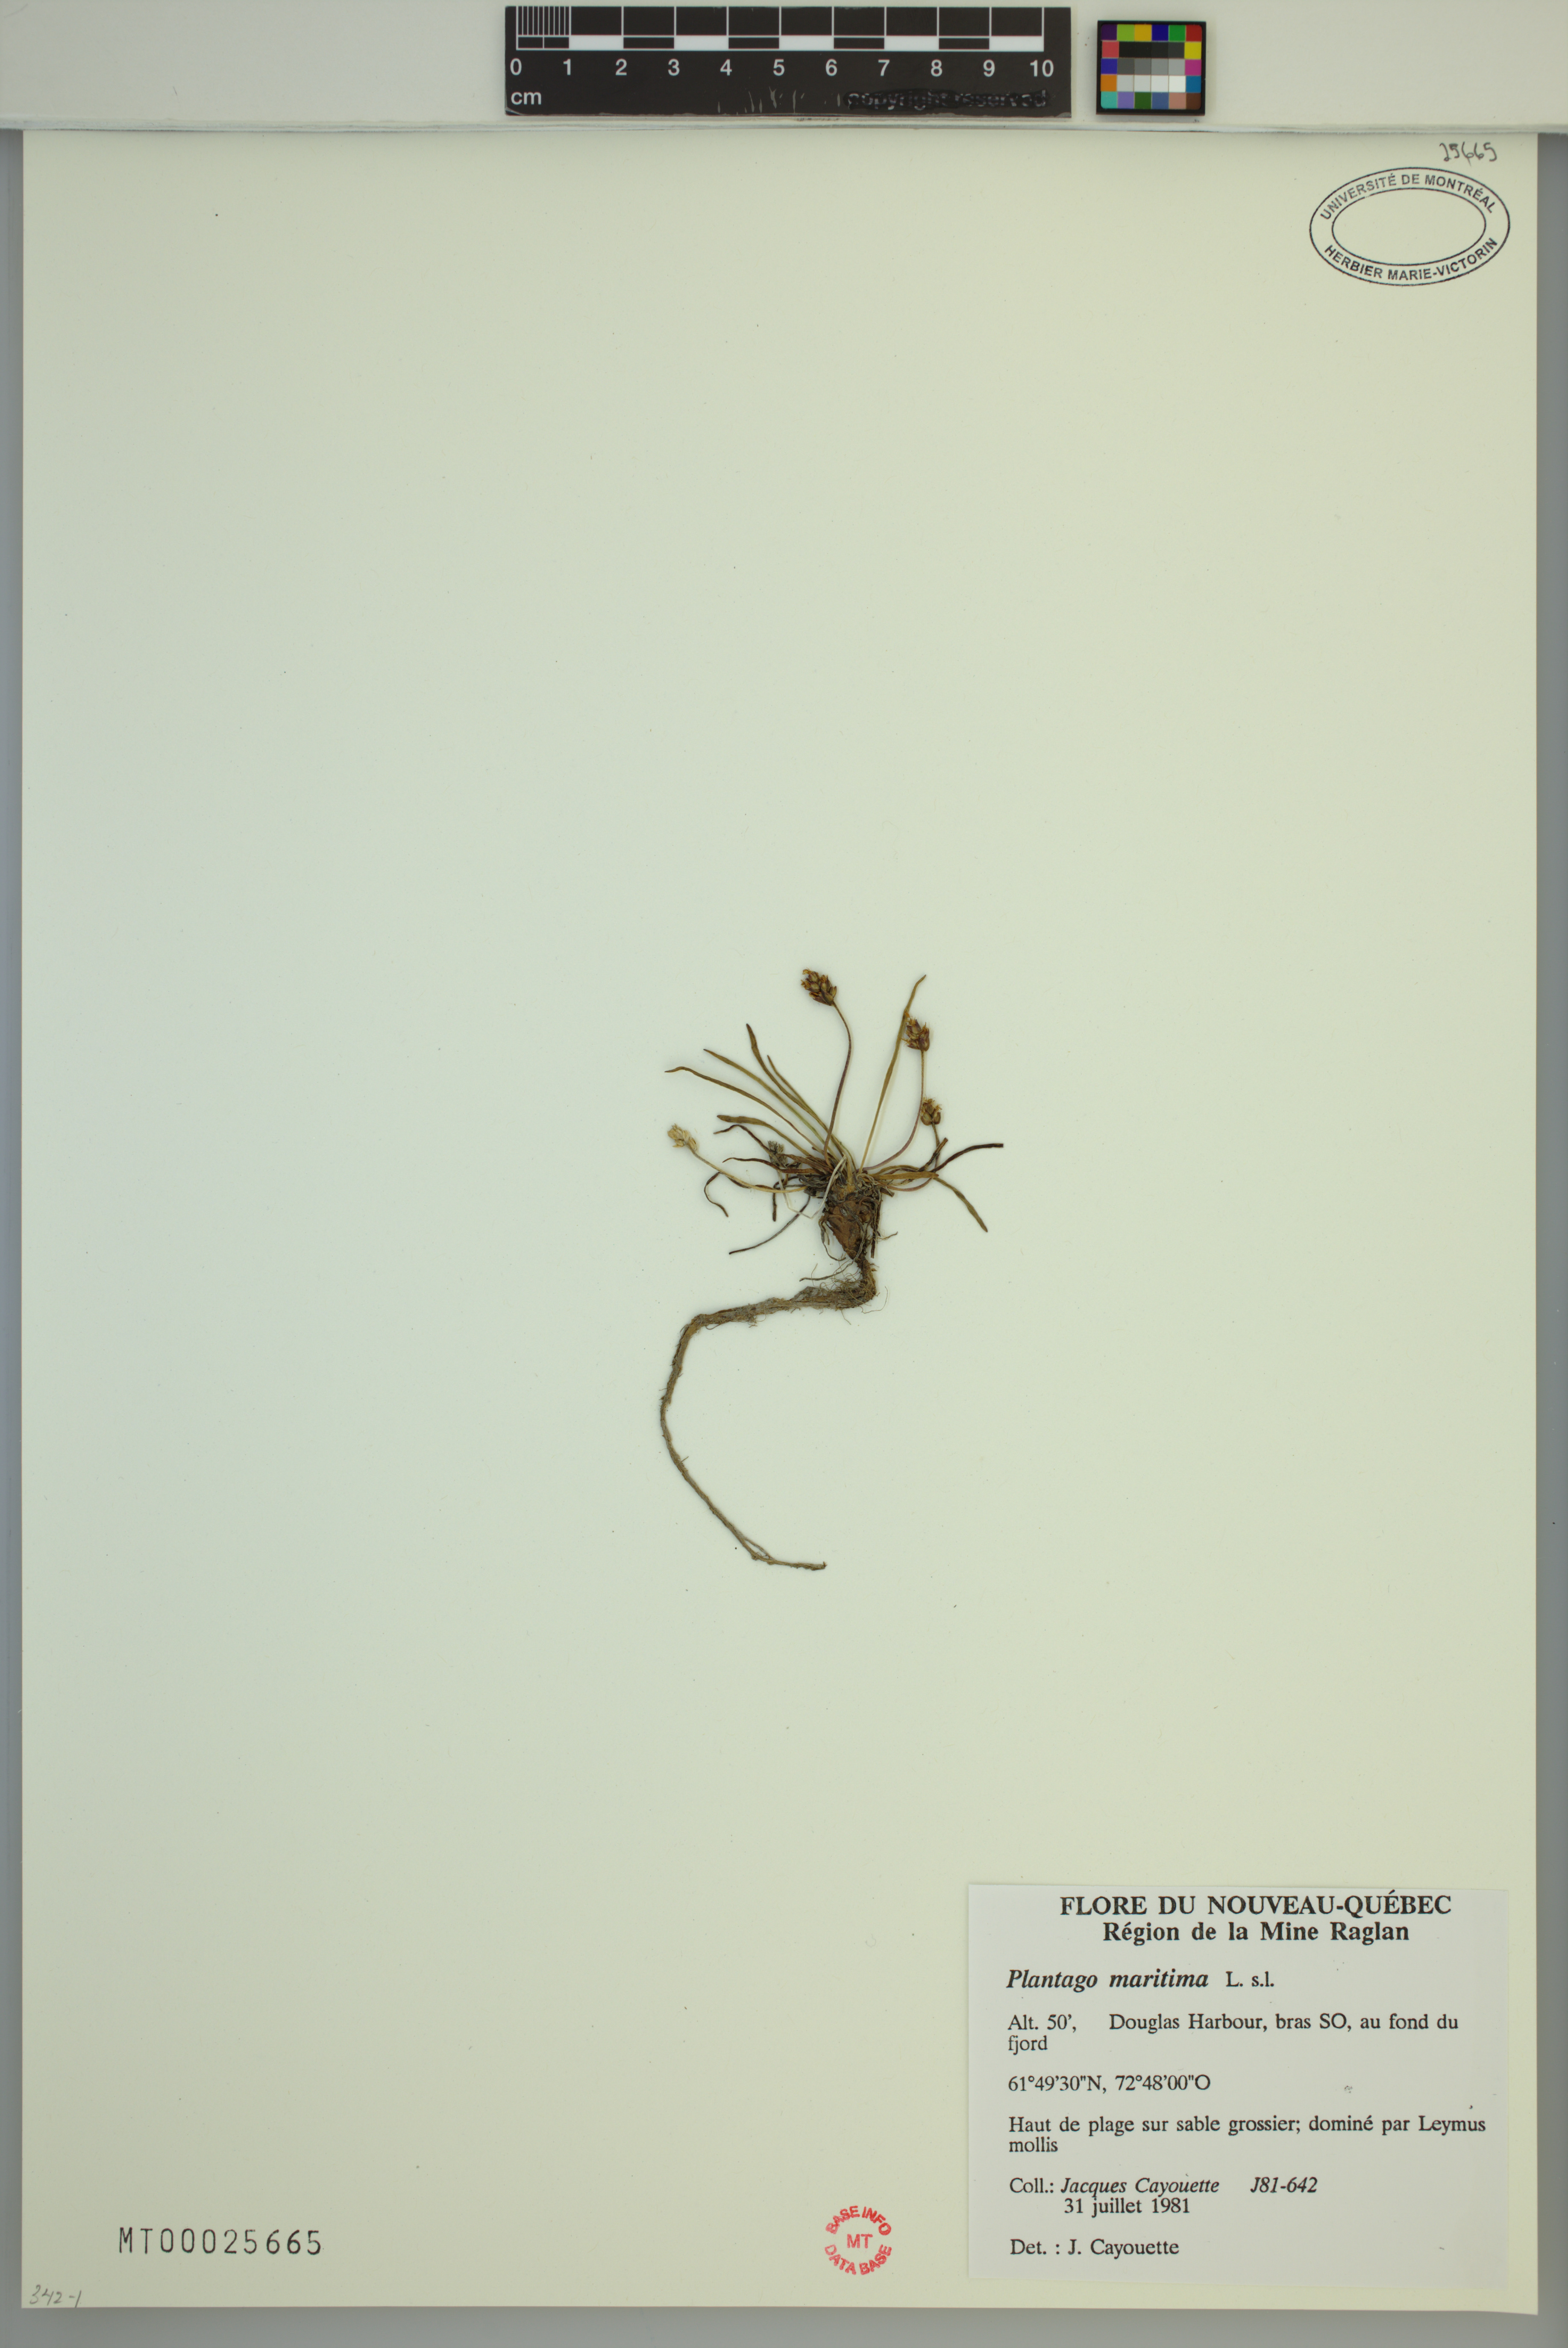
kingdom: Plantae
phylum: Tracheophyta
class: Magnoliopsida
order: Lamiales
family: Plantaginaceae
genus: Plantago
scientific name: Plantago maritima
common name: Sea plantain
